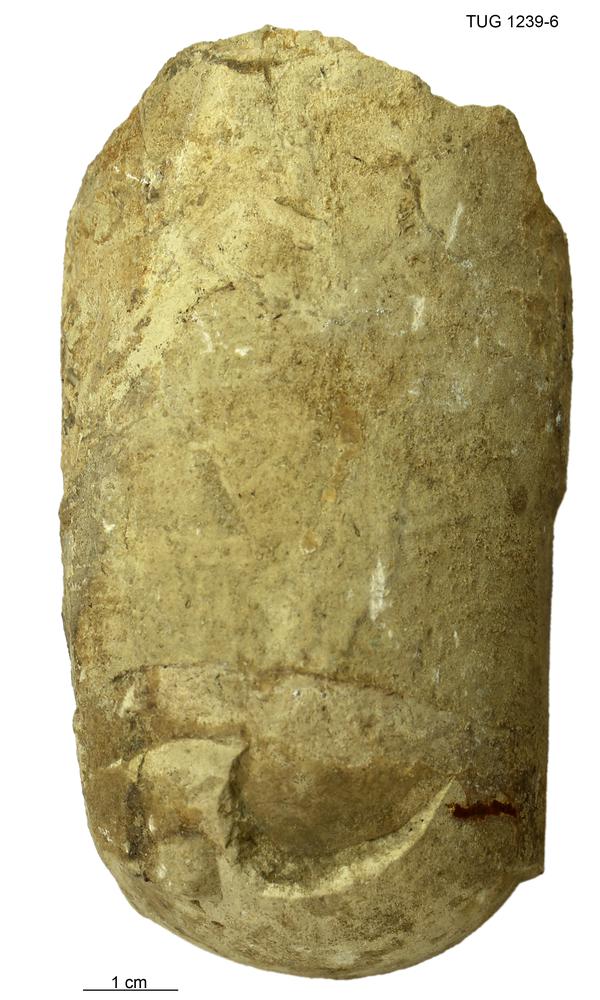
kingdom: Animalia
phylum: Mollusca
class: Cephalopoda
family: Protophragmoceratidae
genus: Protophragmoceras
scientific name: Protophragmoceras sphinx
